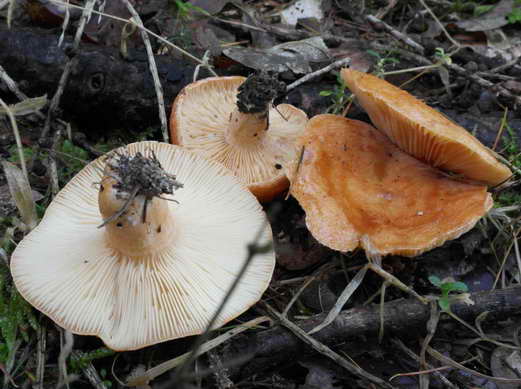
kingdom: Fungi
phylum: Basidiomycota
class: Agaricomycetes
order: Russulales
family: Russulaceae
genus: Lactarius
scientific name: Lactarius porninsis
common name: lærke-mælkehat
